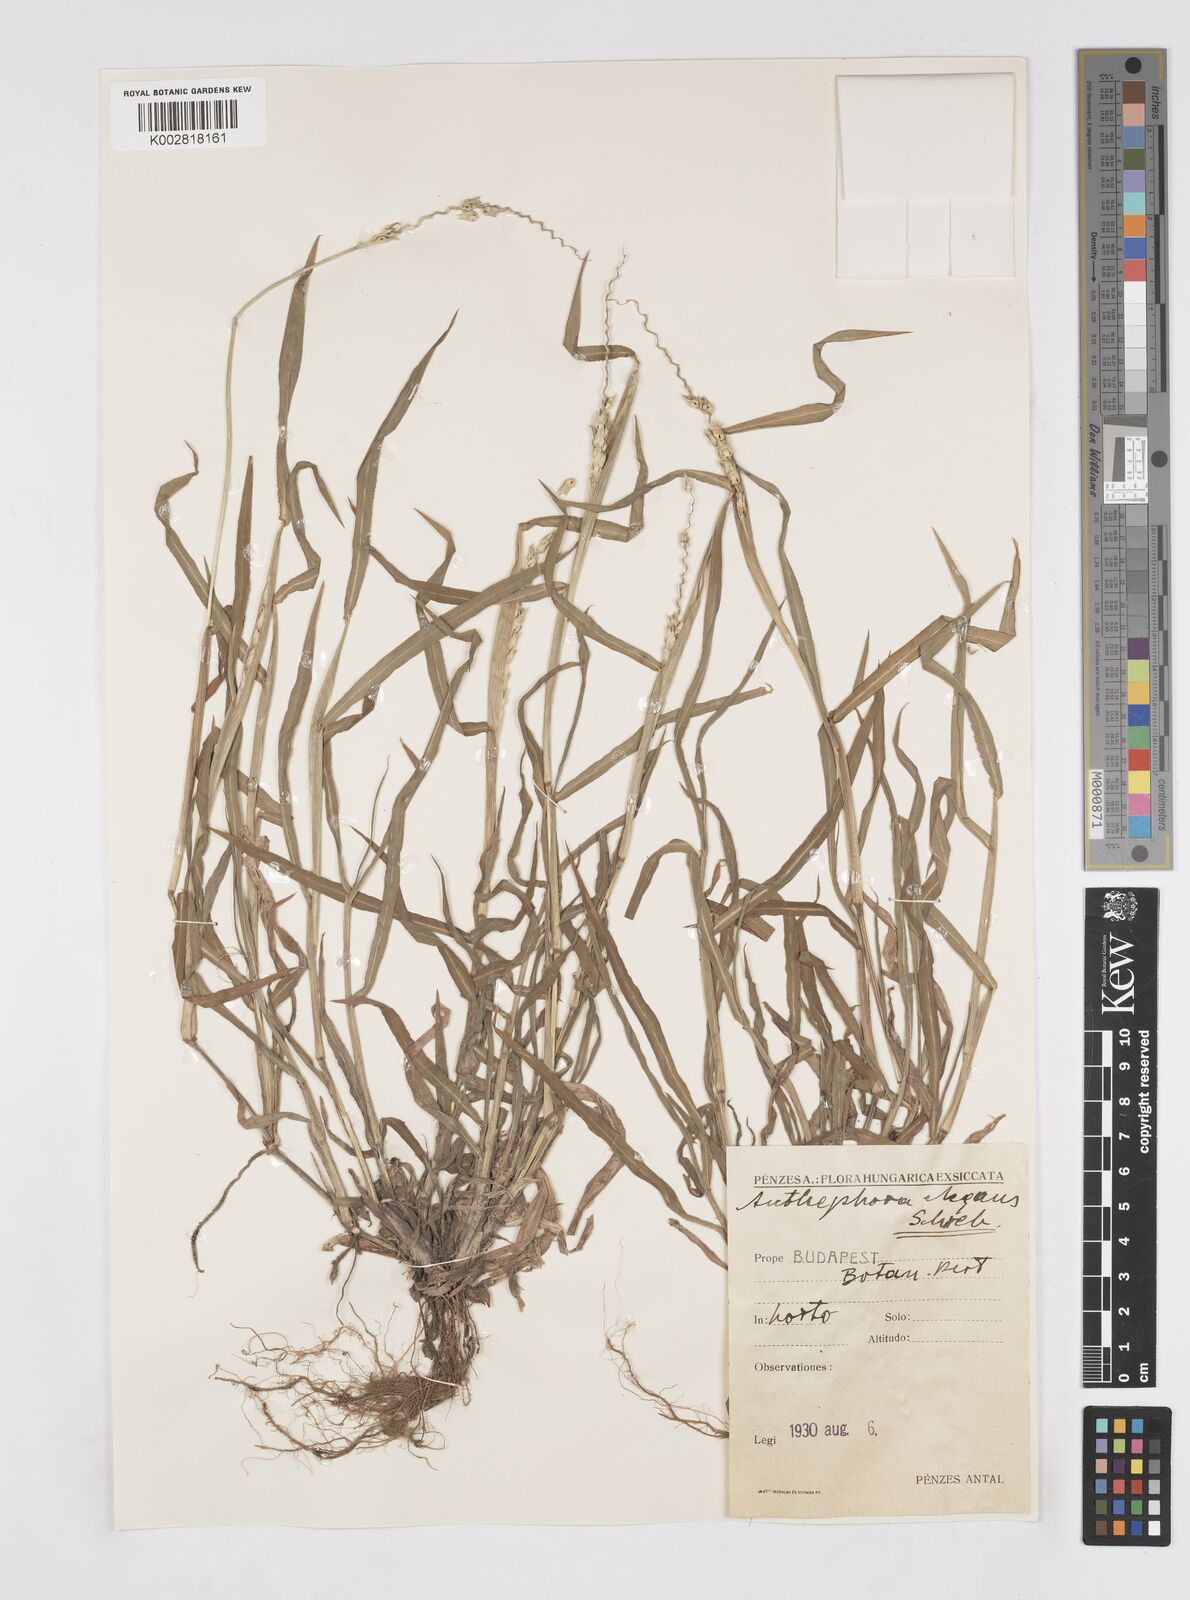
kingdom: Plantae
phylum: Tracheophyta
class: Liliopsida
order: Poales
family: Poaceae
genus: Anthephora
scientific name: Anthephora hermaphrodita
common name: Oldfield grass
